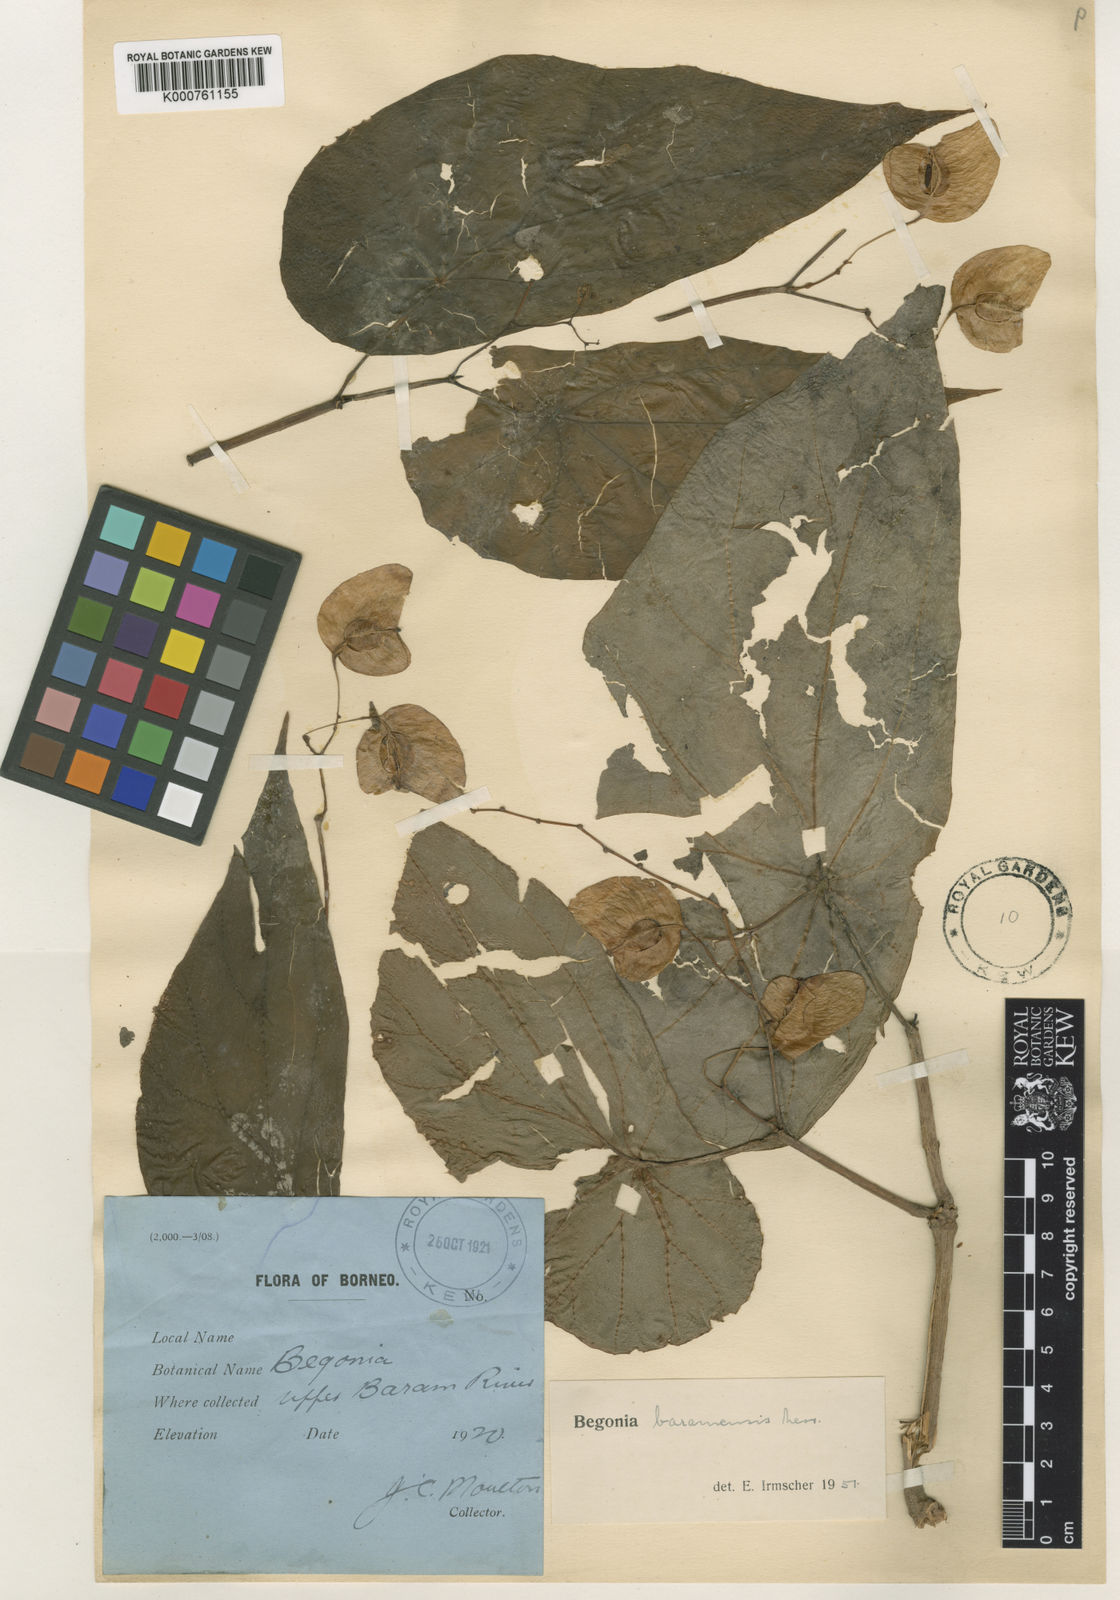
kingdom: Plantae
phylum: Tracheophyta
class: Magnoliopsida
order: Cucurbitales
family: Begoniaceae
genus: Begonia
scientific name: Begonia baramensis
